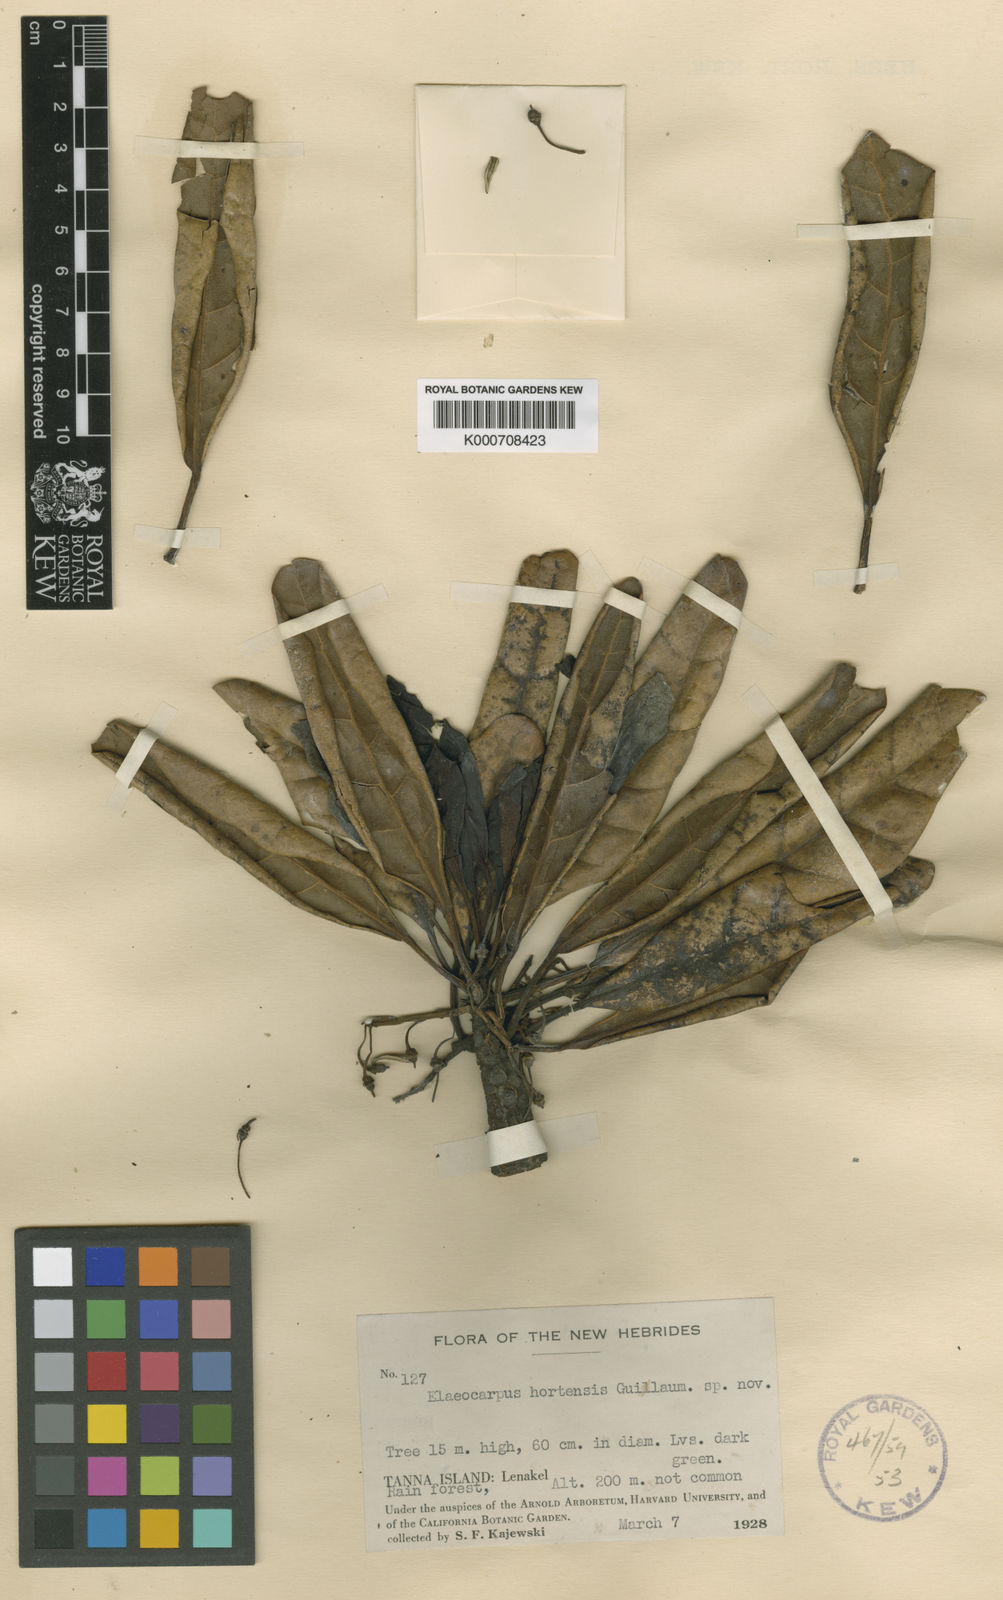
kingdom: Plantae
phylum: Tracheophyta
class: Magnoliopsida
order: Oxalidales
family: Elaeocarpaceae
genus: Elaeocarpus
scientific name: Elaeocarpus hortensis
